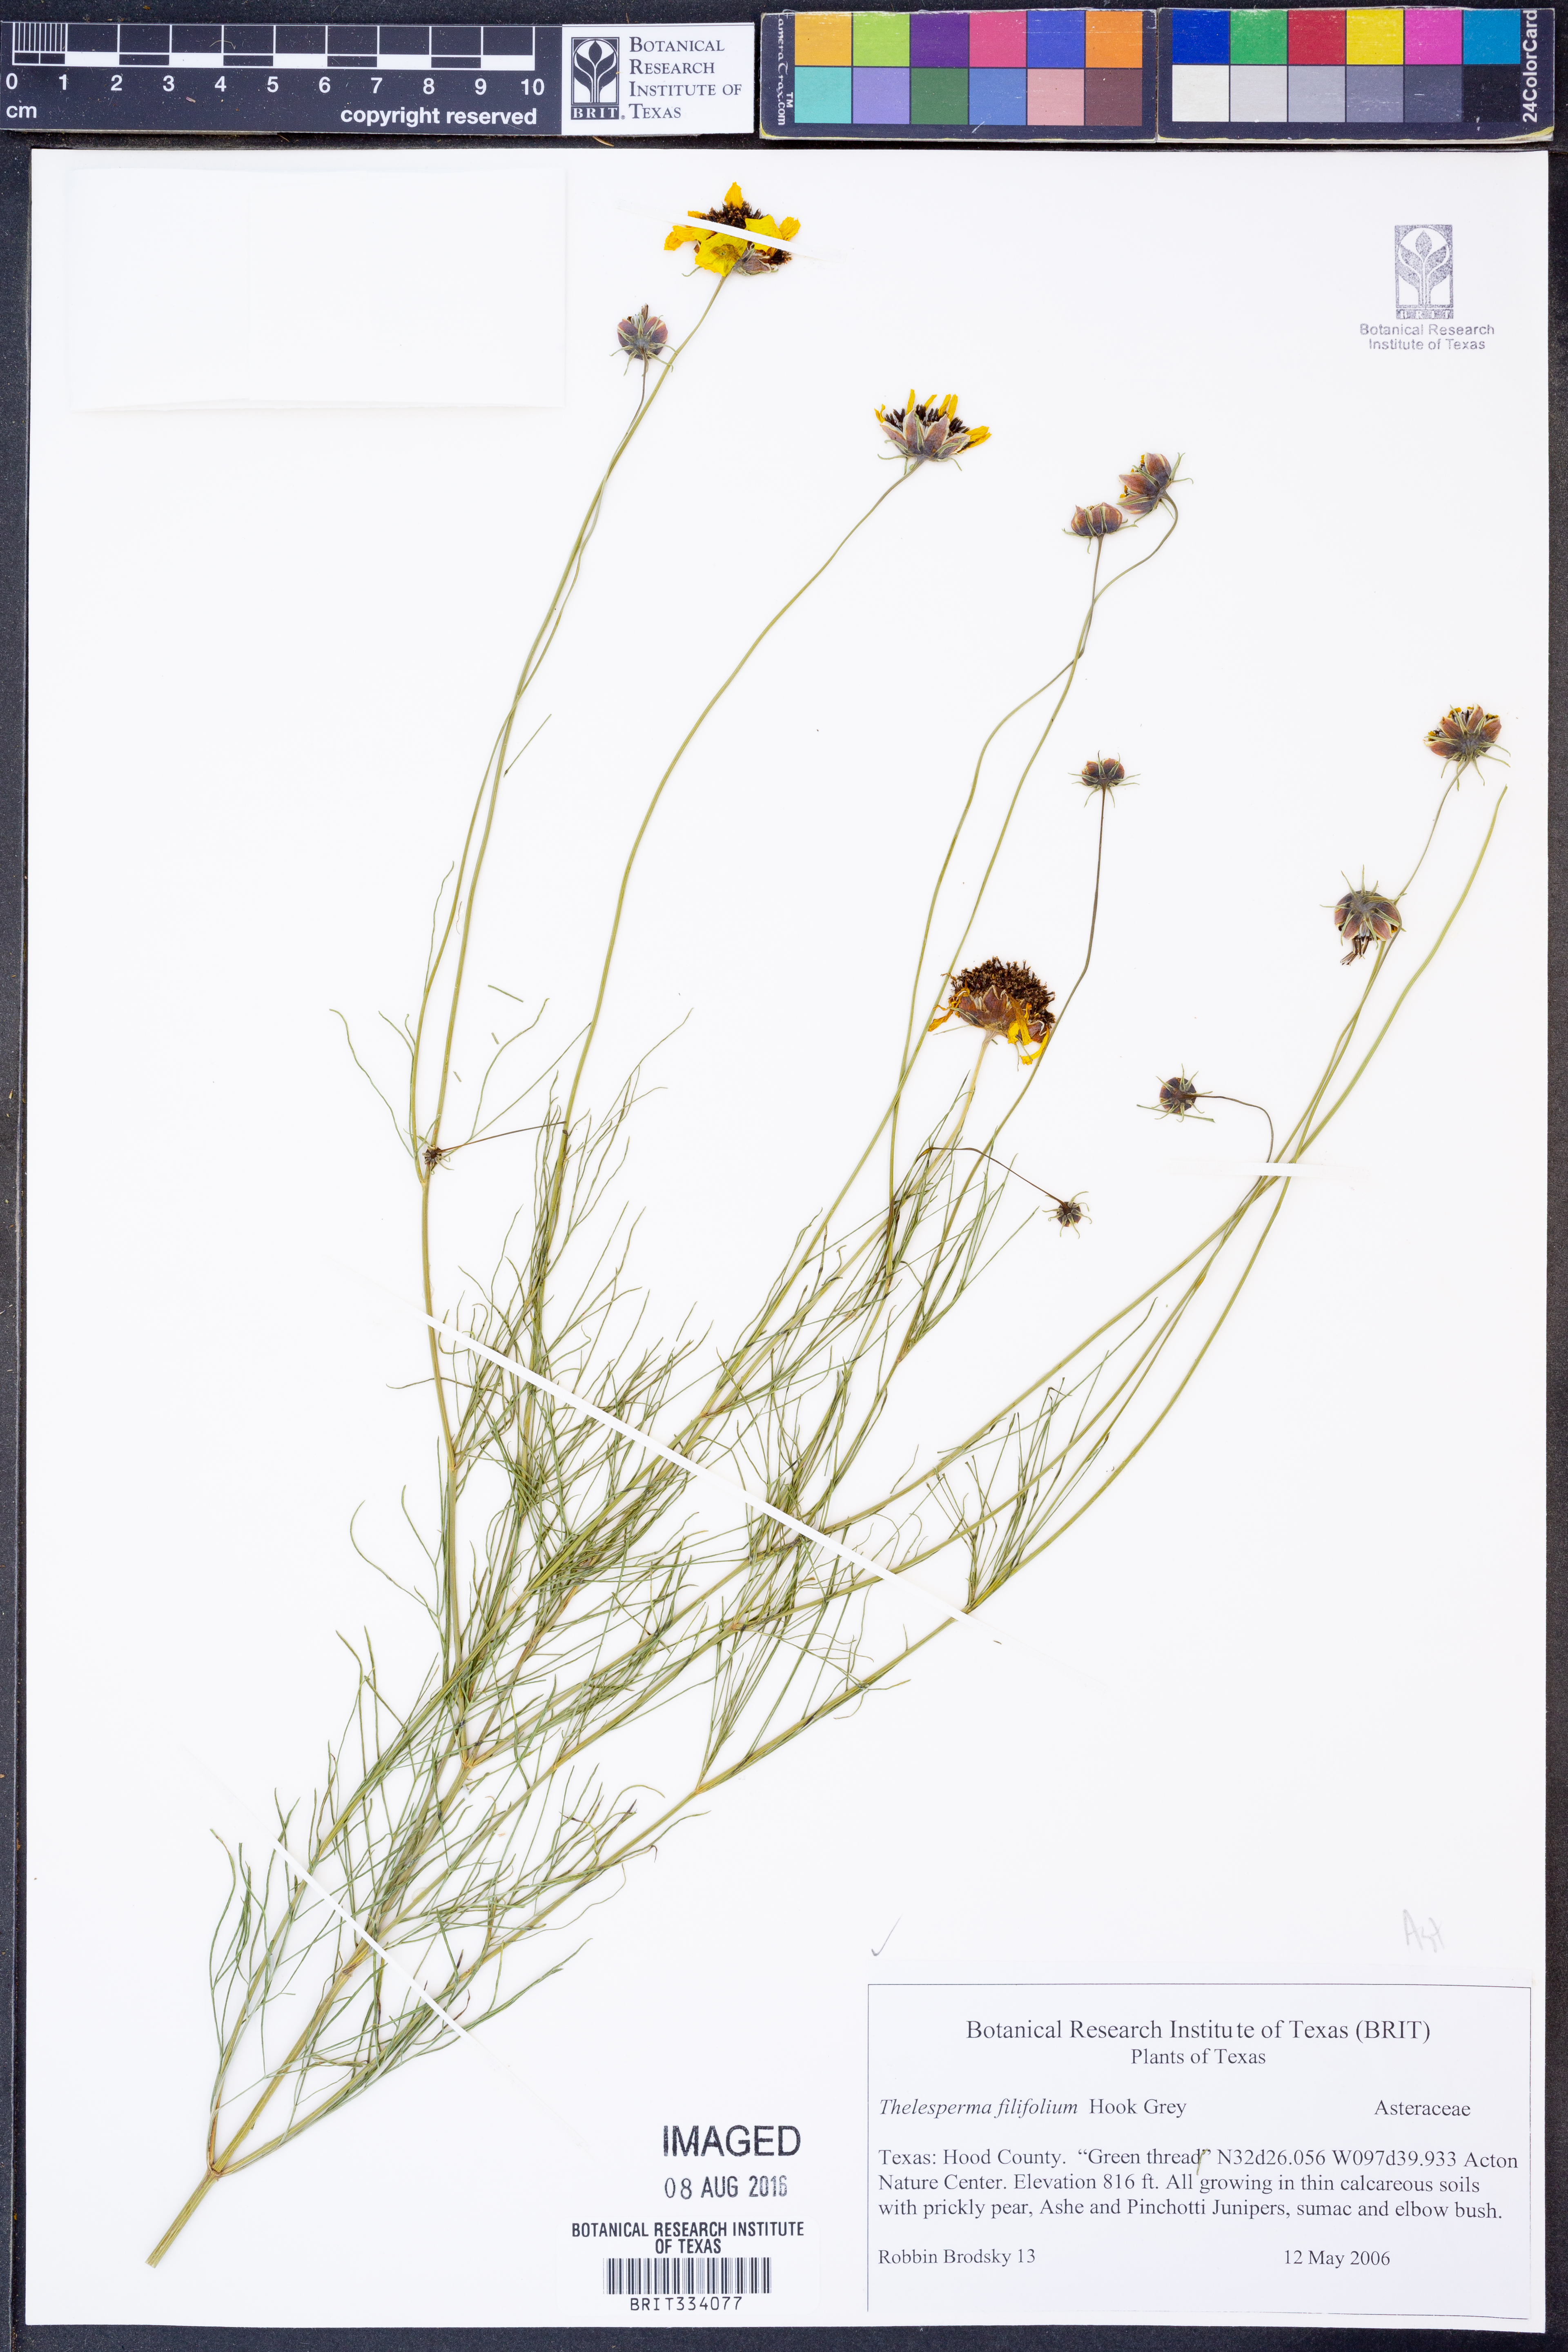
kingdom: Plantae
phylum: Tracheophyta
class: Magnoliopsida
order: Asterales
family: Asteraceae
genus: Thelesperma
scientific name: Thelesperma filifolium
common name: Stiff greenthread
